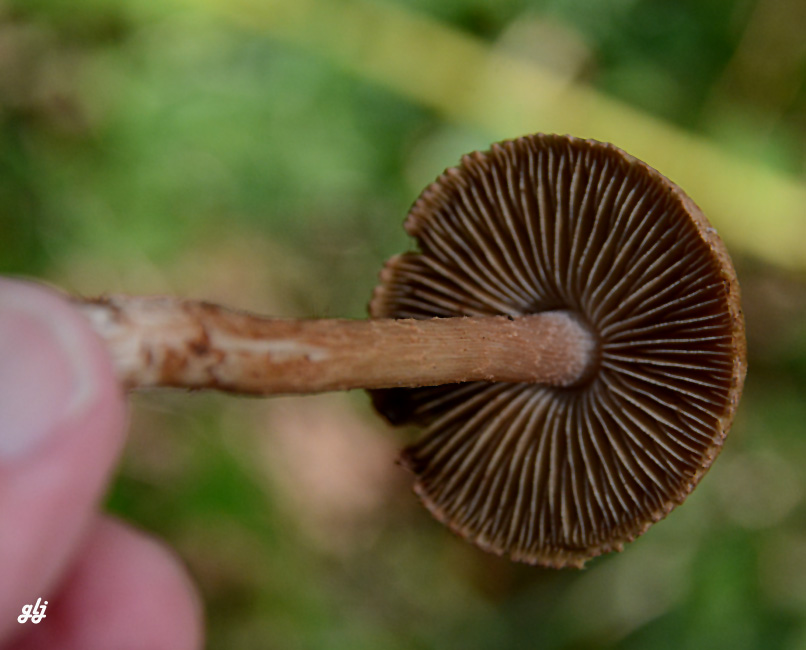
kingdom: Fungi
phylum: Basidiomycota
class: Agaricomycetes
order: Agaricales
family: Inocybaceae
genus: Inocybe
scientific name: Inocybe
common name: trævlhat
